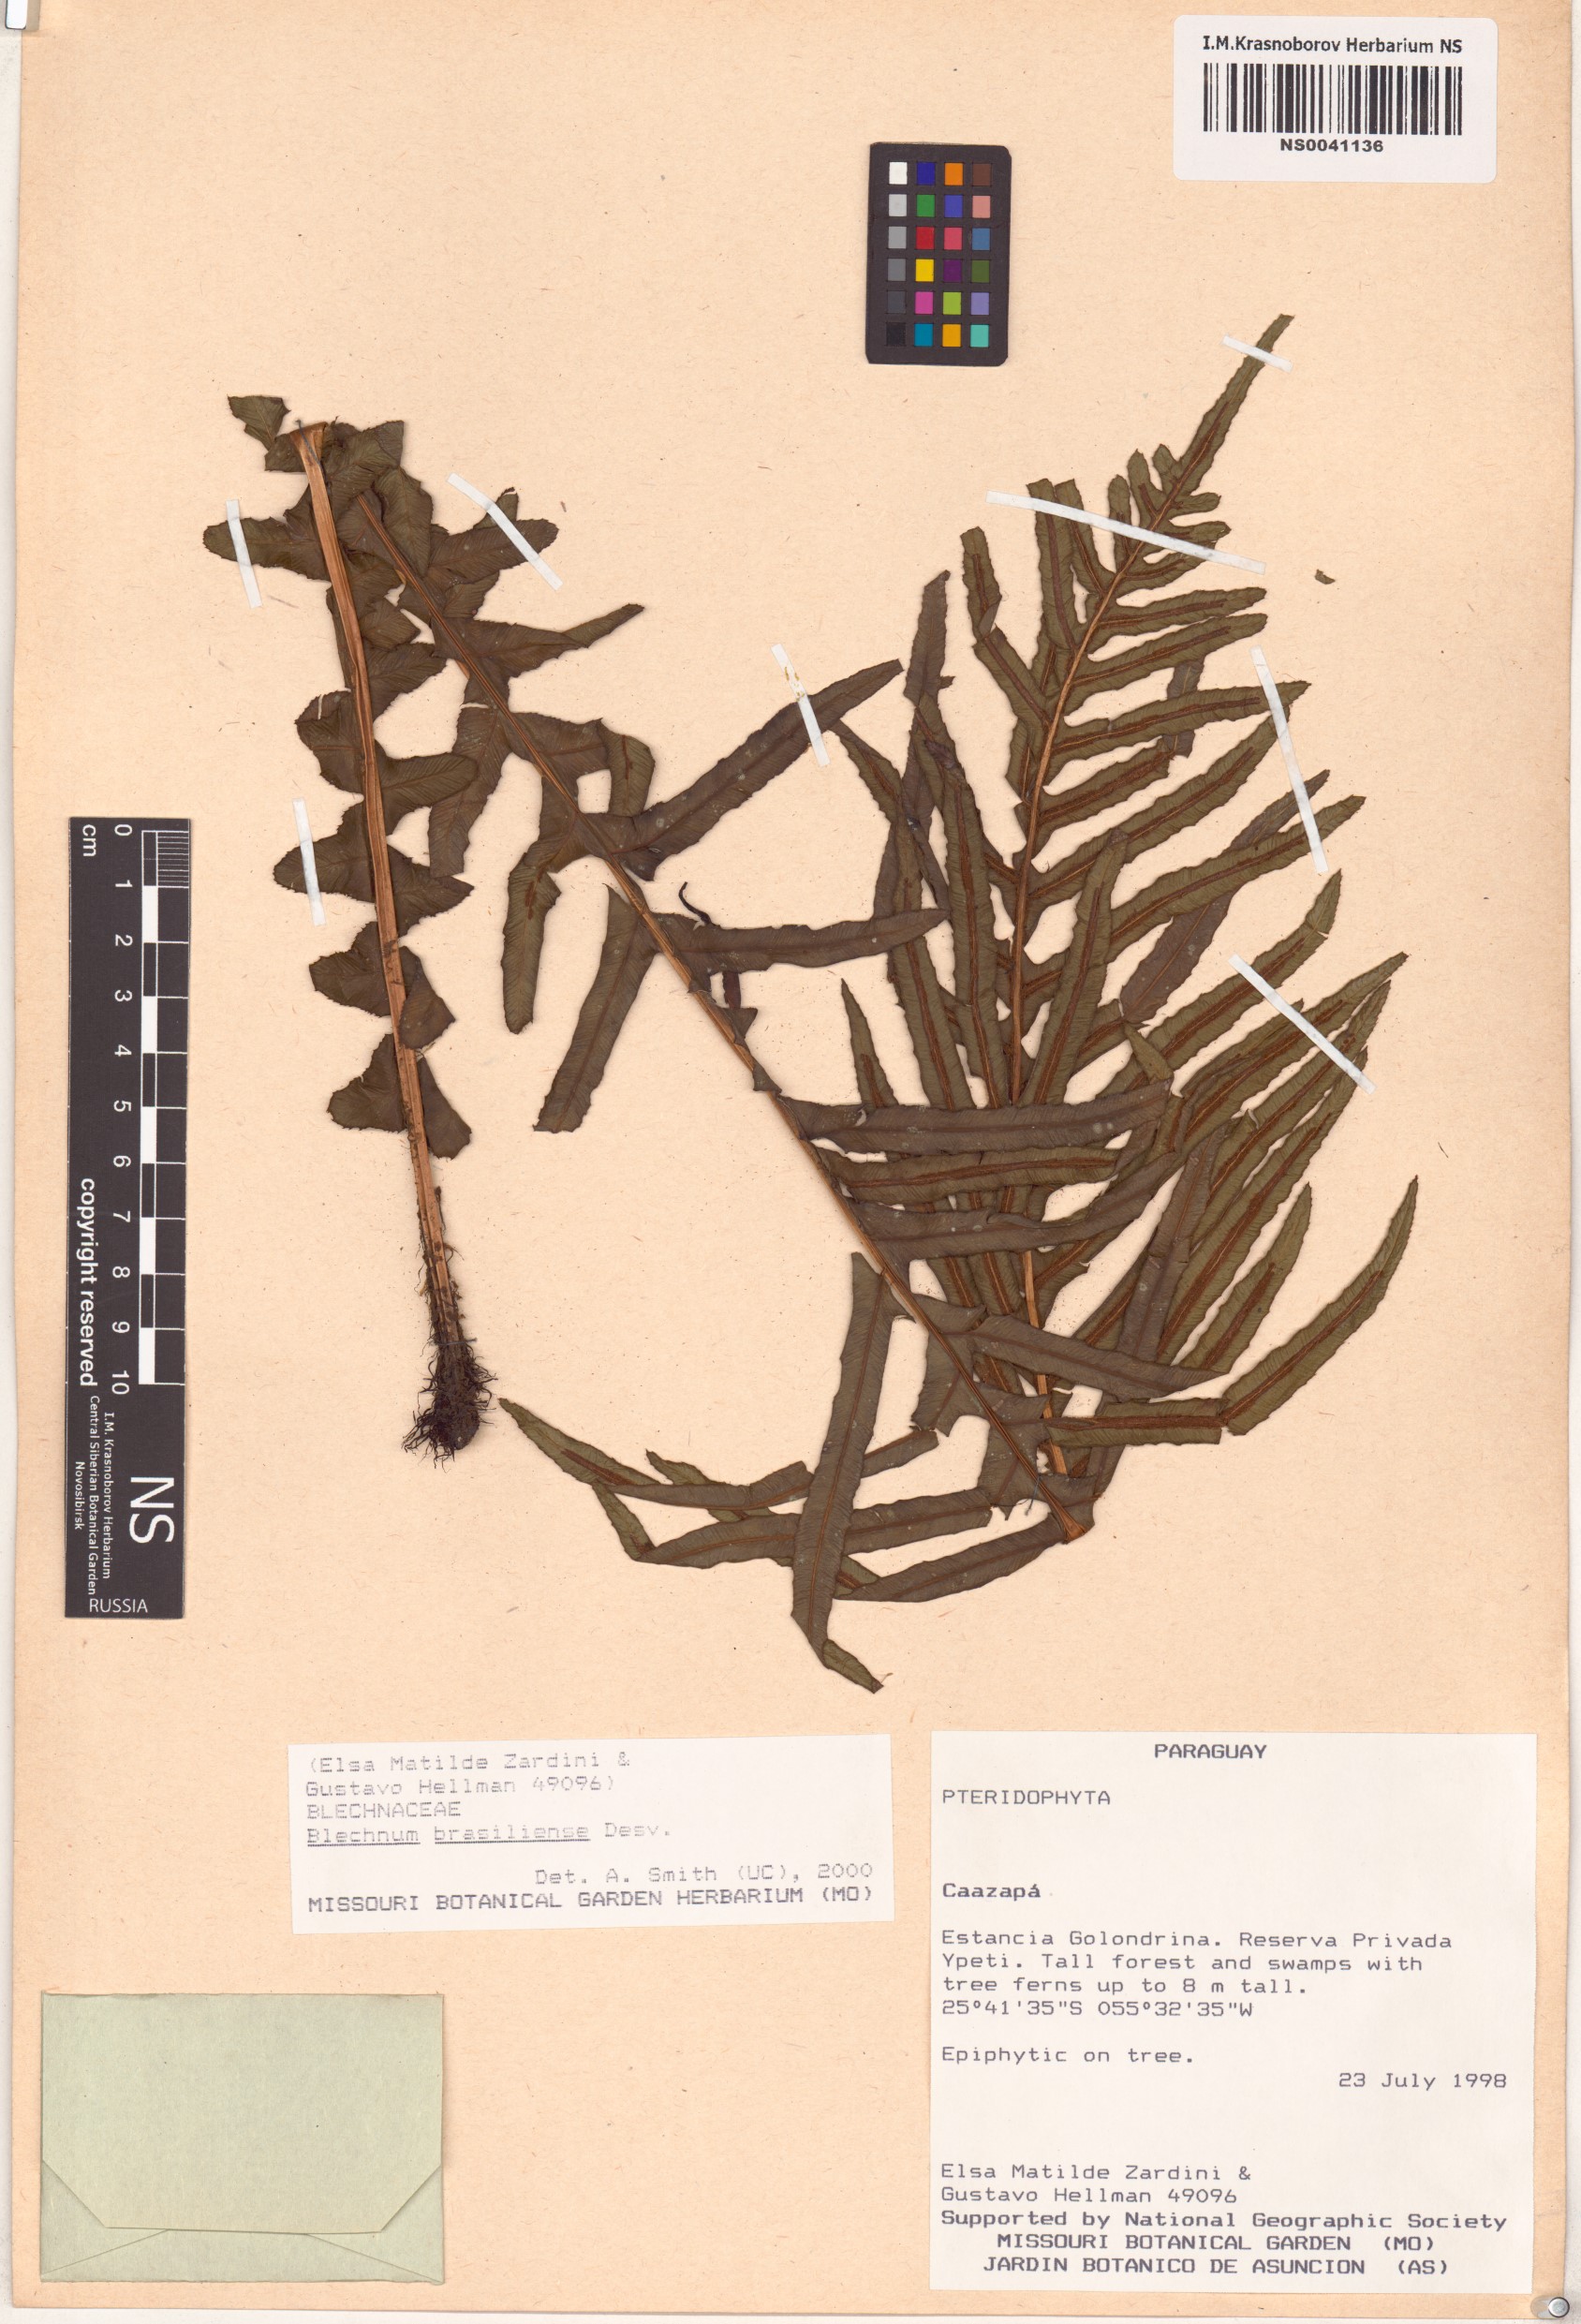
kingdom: Plantae
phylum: Tracheophyta
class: Polypodiopsida
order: Polypodiales
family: Blechnaceae
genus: Neoblechnum
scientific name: Neoblechnum brasiliense
